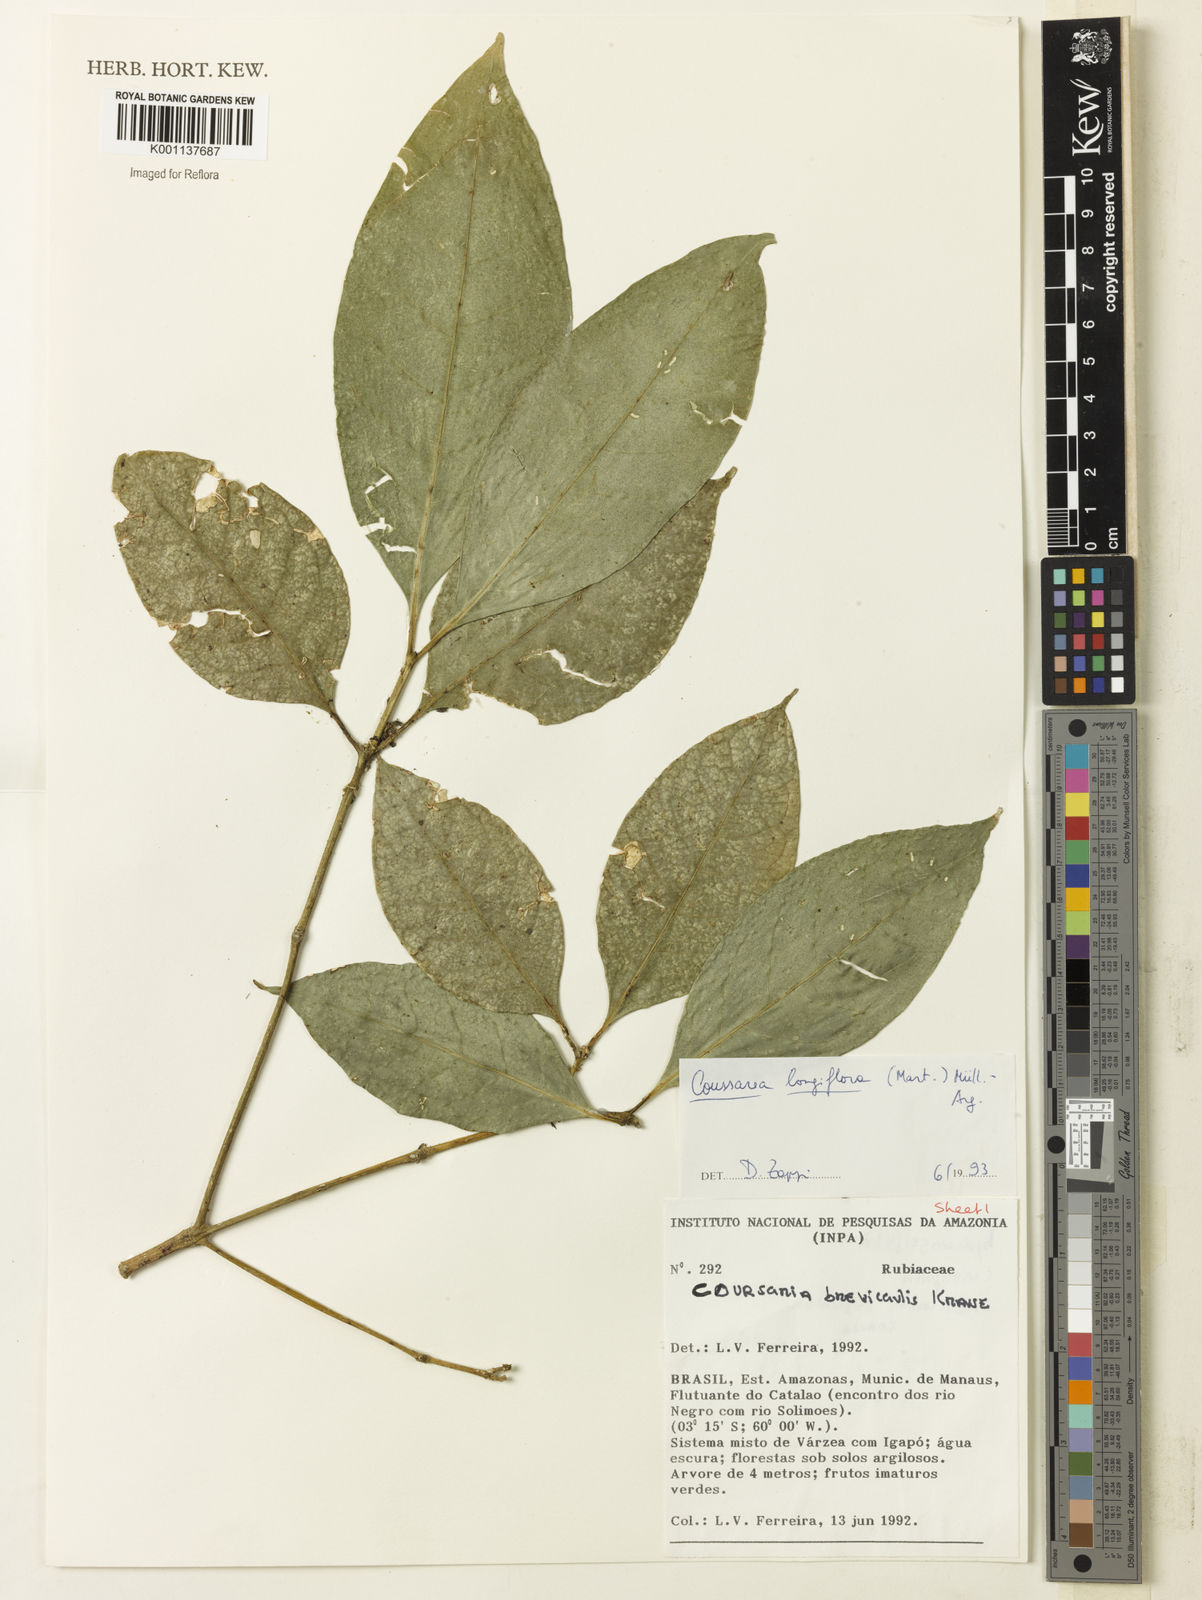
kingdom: Plantae
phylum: Tracheophyta
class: Magnoliopsida
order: Gentianales
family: Rubiaceae
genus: Coussarea
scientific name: Coussarea
